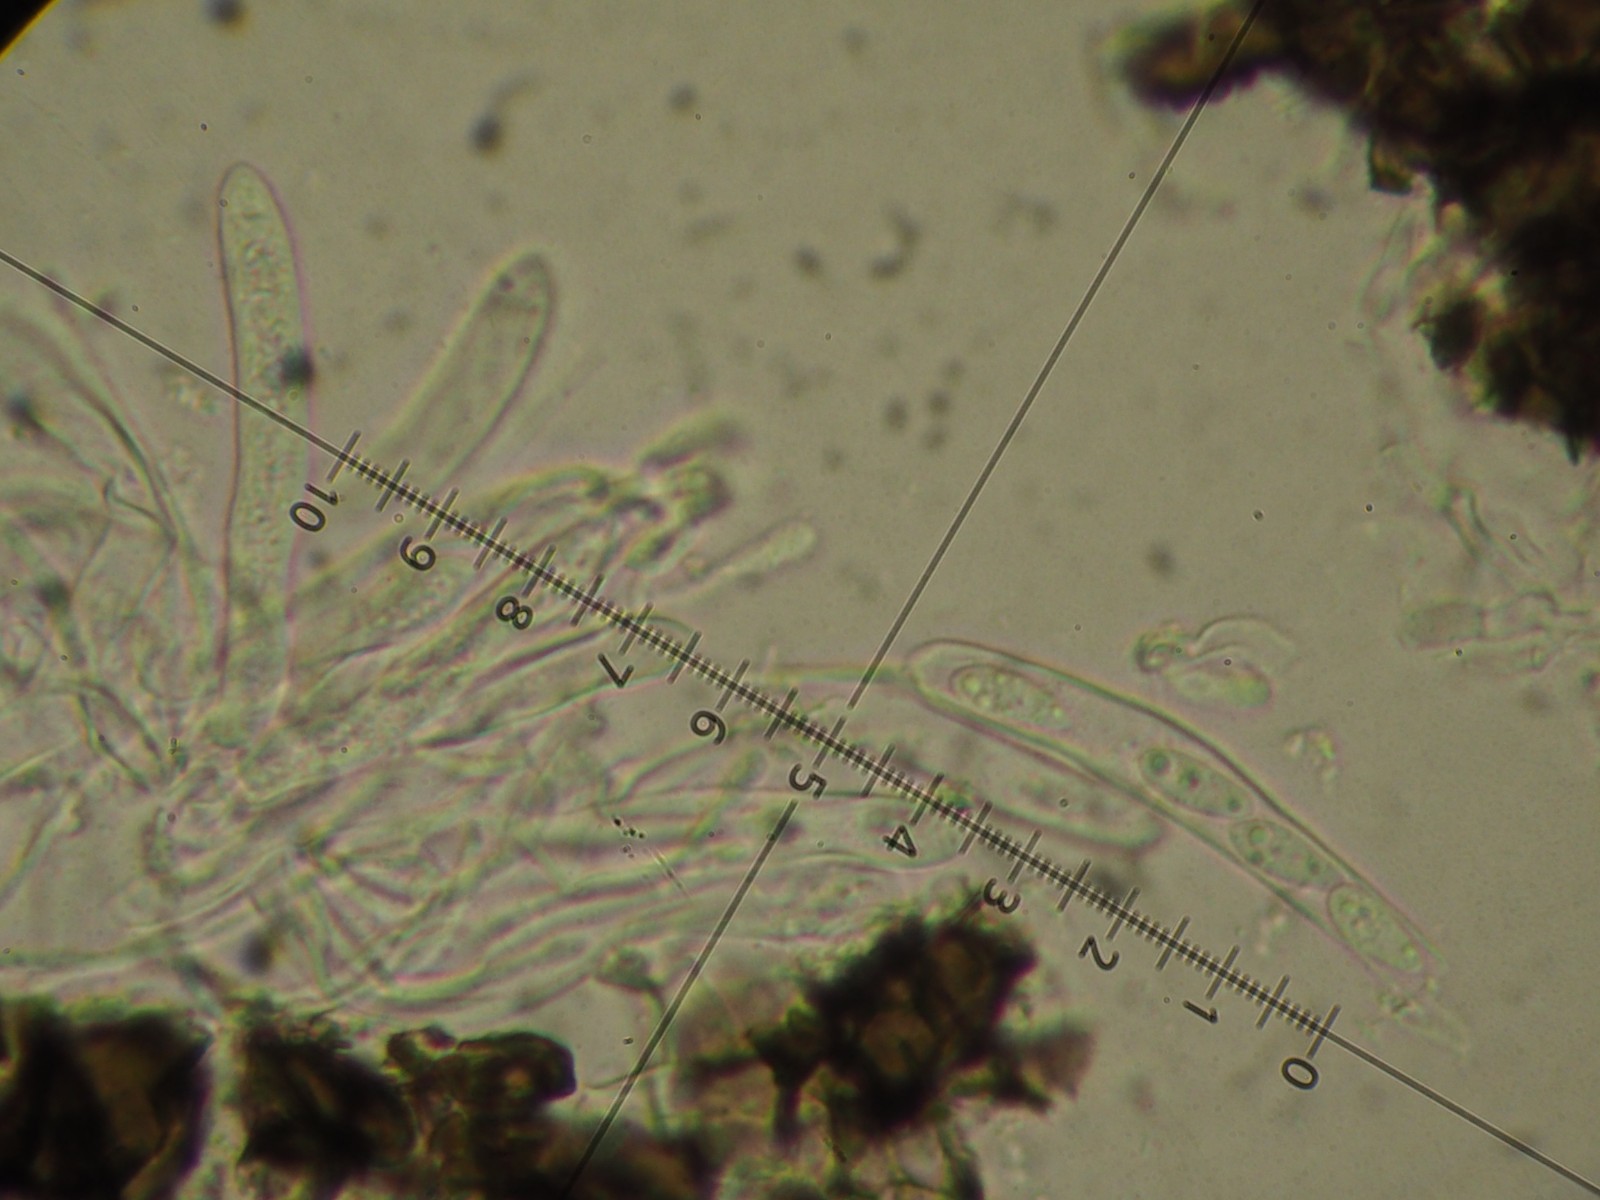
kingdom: Fungi
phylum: Ascomycota
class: Leotiomycetes
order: Helotiales
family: Drepanopezizaceae
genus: Spilopodia
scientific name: Spilopodia melanogramma
